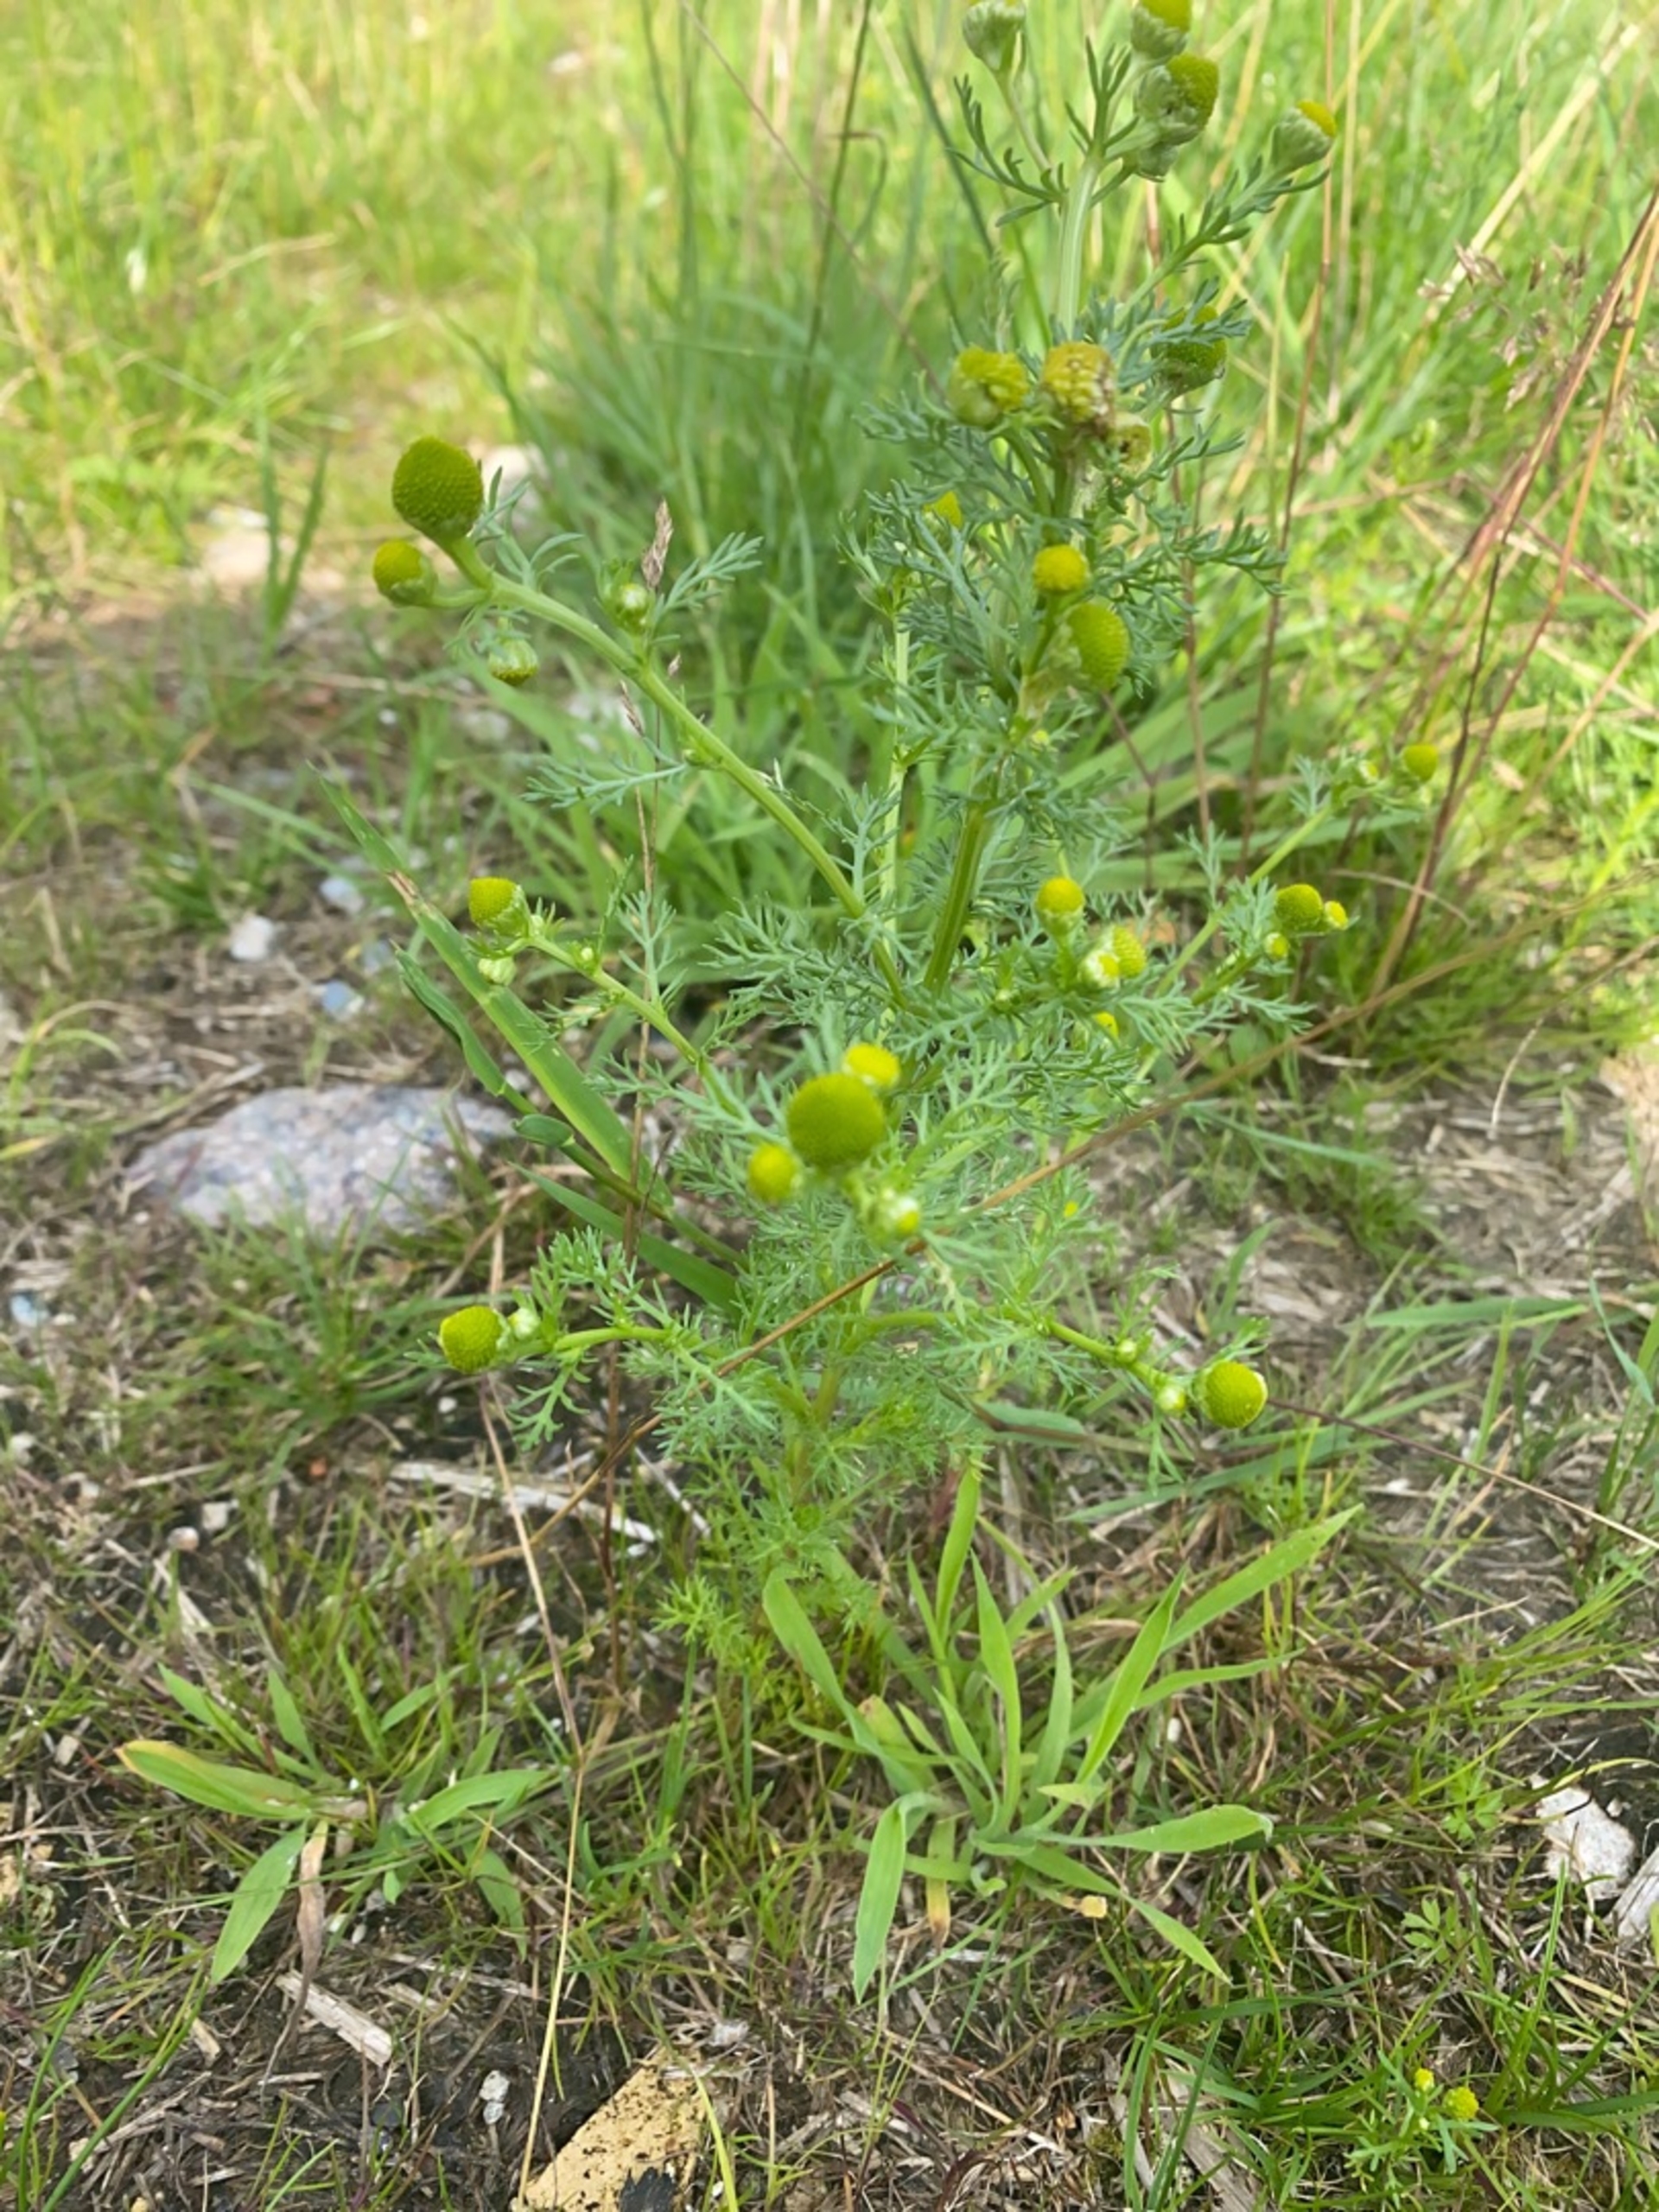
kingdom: Plantae
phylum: Tracheophyta
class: Magnoliopsida
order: Asterales
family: Asteraceae
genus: Matricaria
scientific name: Matricaria discoidea
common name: Skive-kamille
